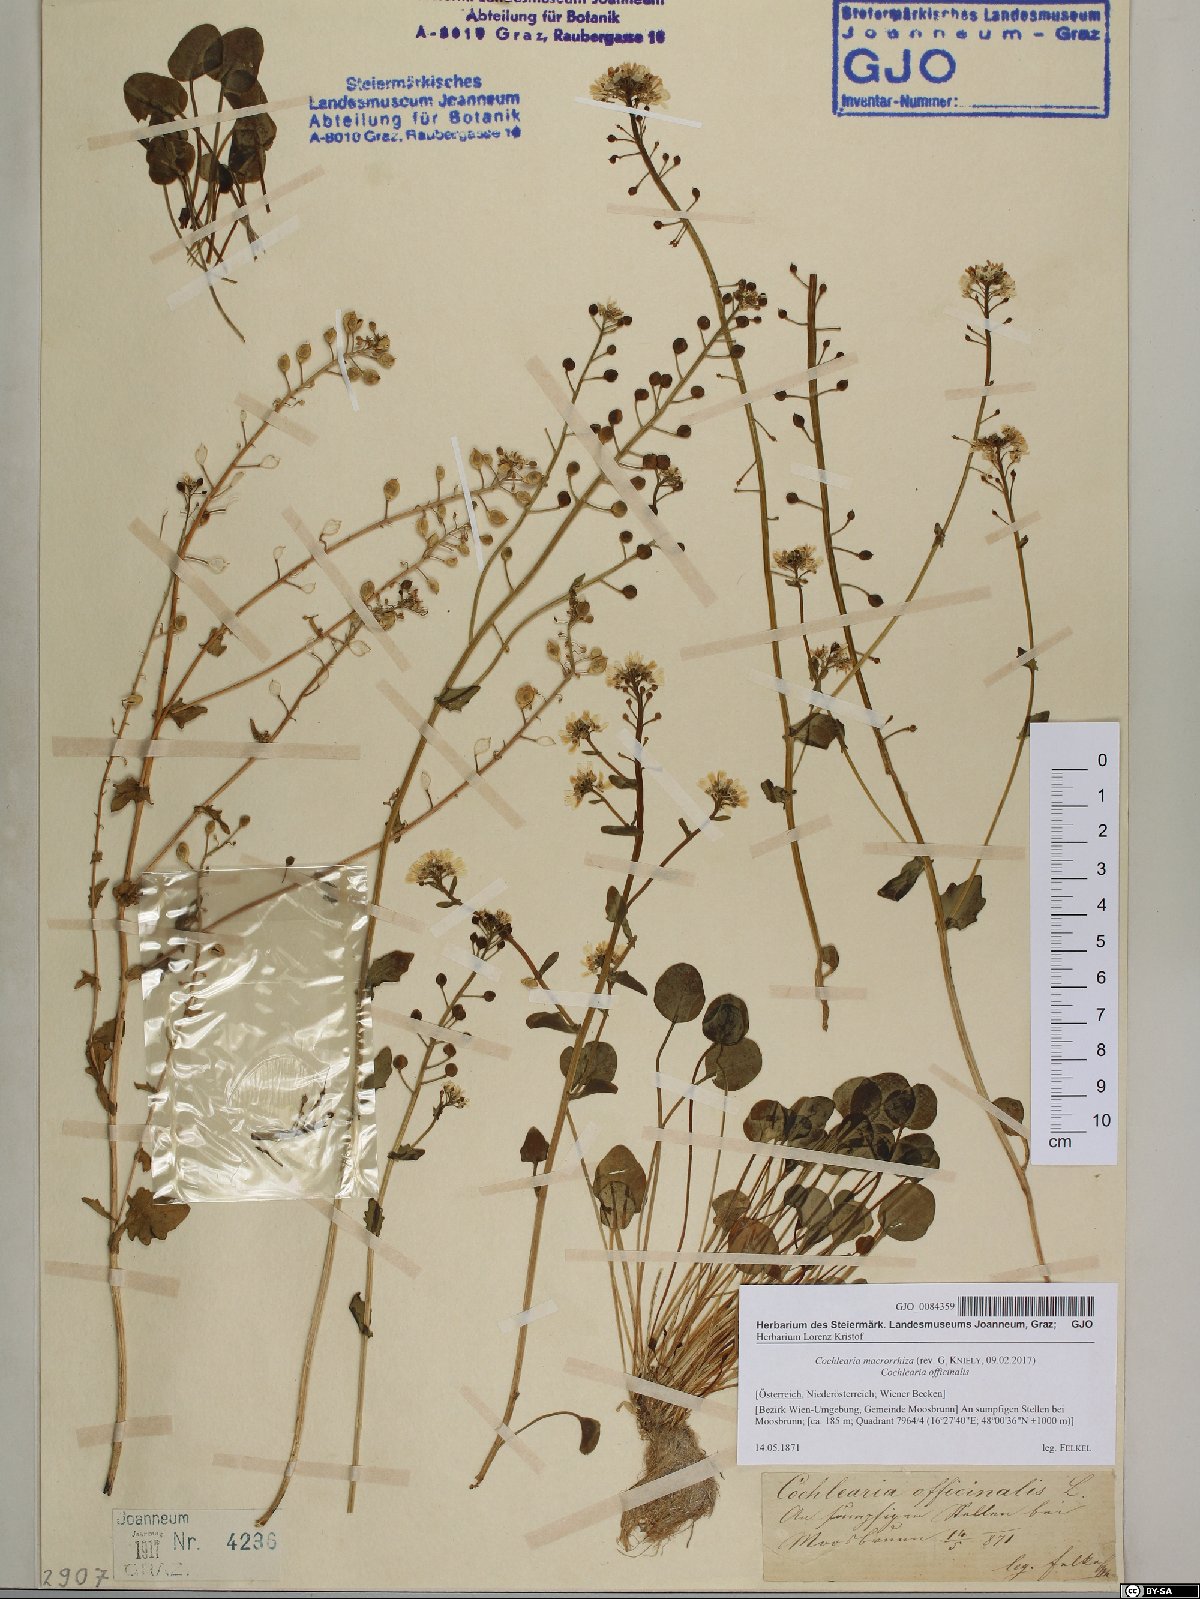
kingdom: Plantae
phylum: Tracheophyta
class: Magnoliopsida
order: Brassicales
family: Brassicaceae
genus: Cochlearia
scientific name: Cochlearia pyrenaica
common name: Upland scurvy-grass
